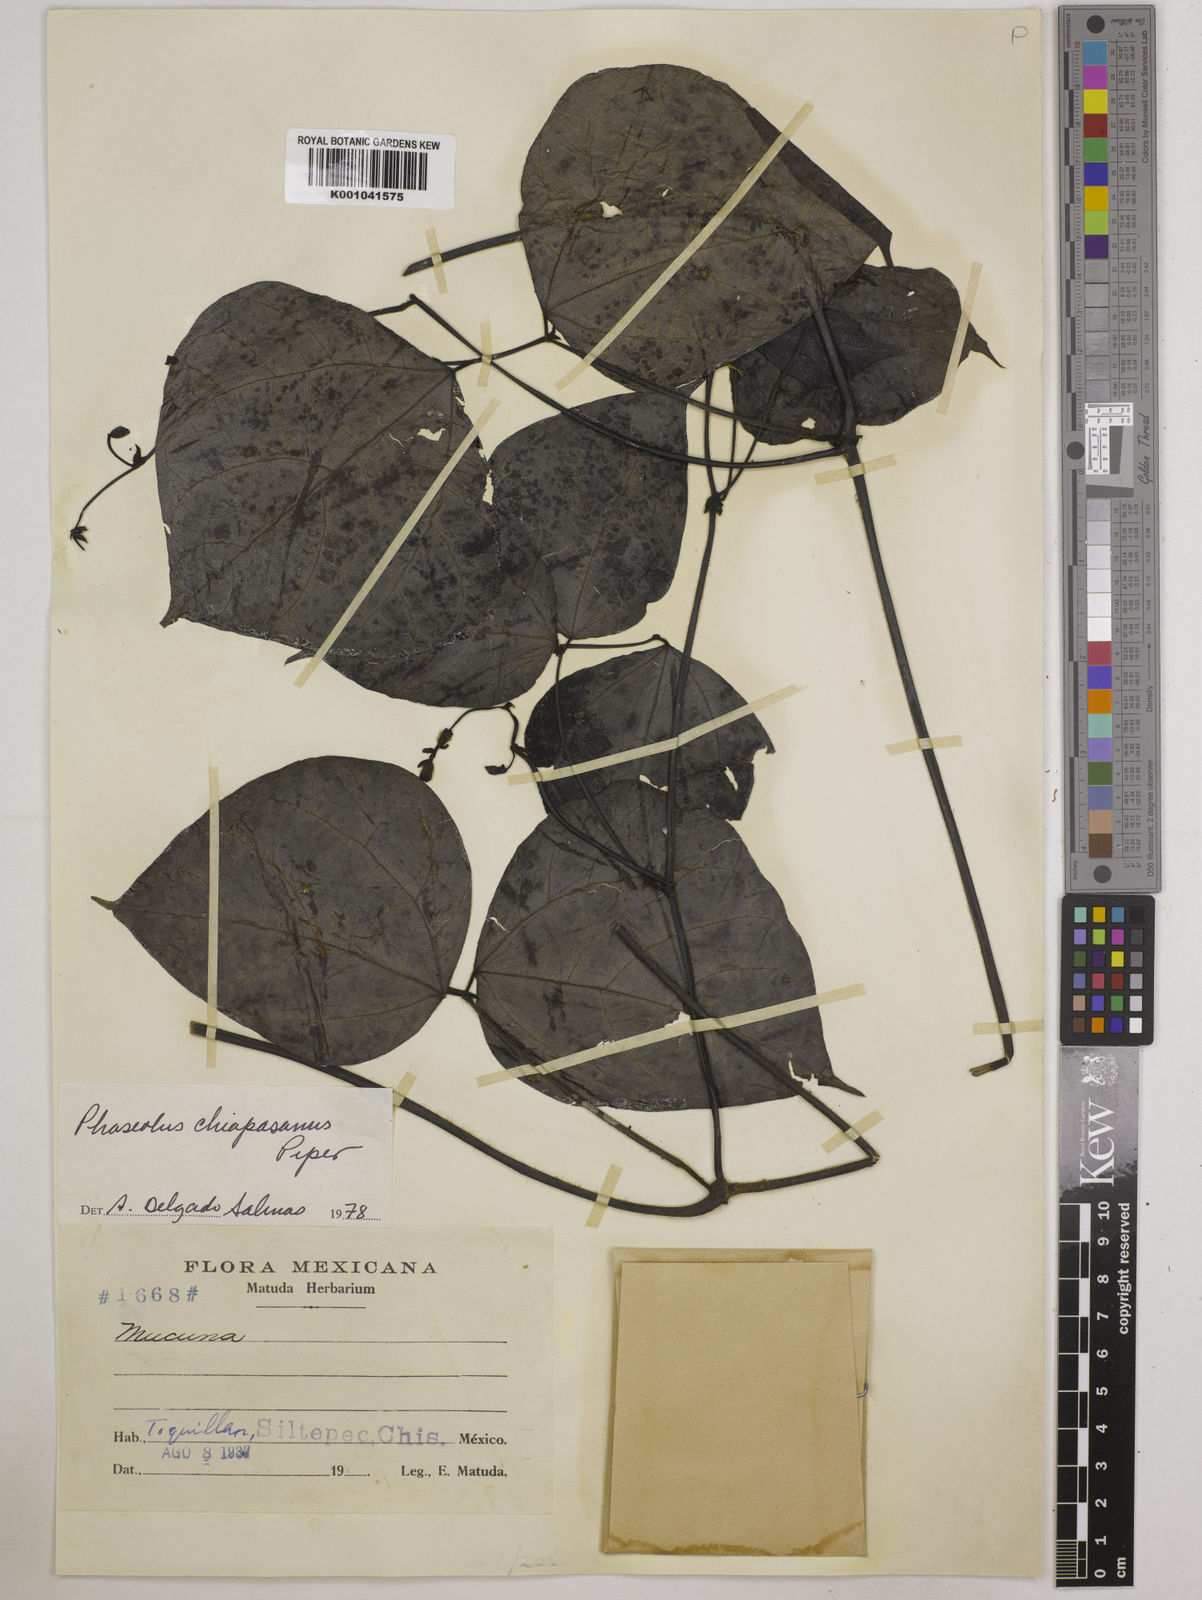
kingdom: Plantae
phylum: Tracheophyta
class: Magnoliopsida
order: Fabales
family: Fabaceae
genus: Phaseolus
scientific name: Phaseolus chiapasanus
